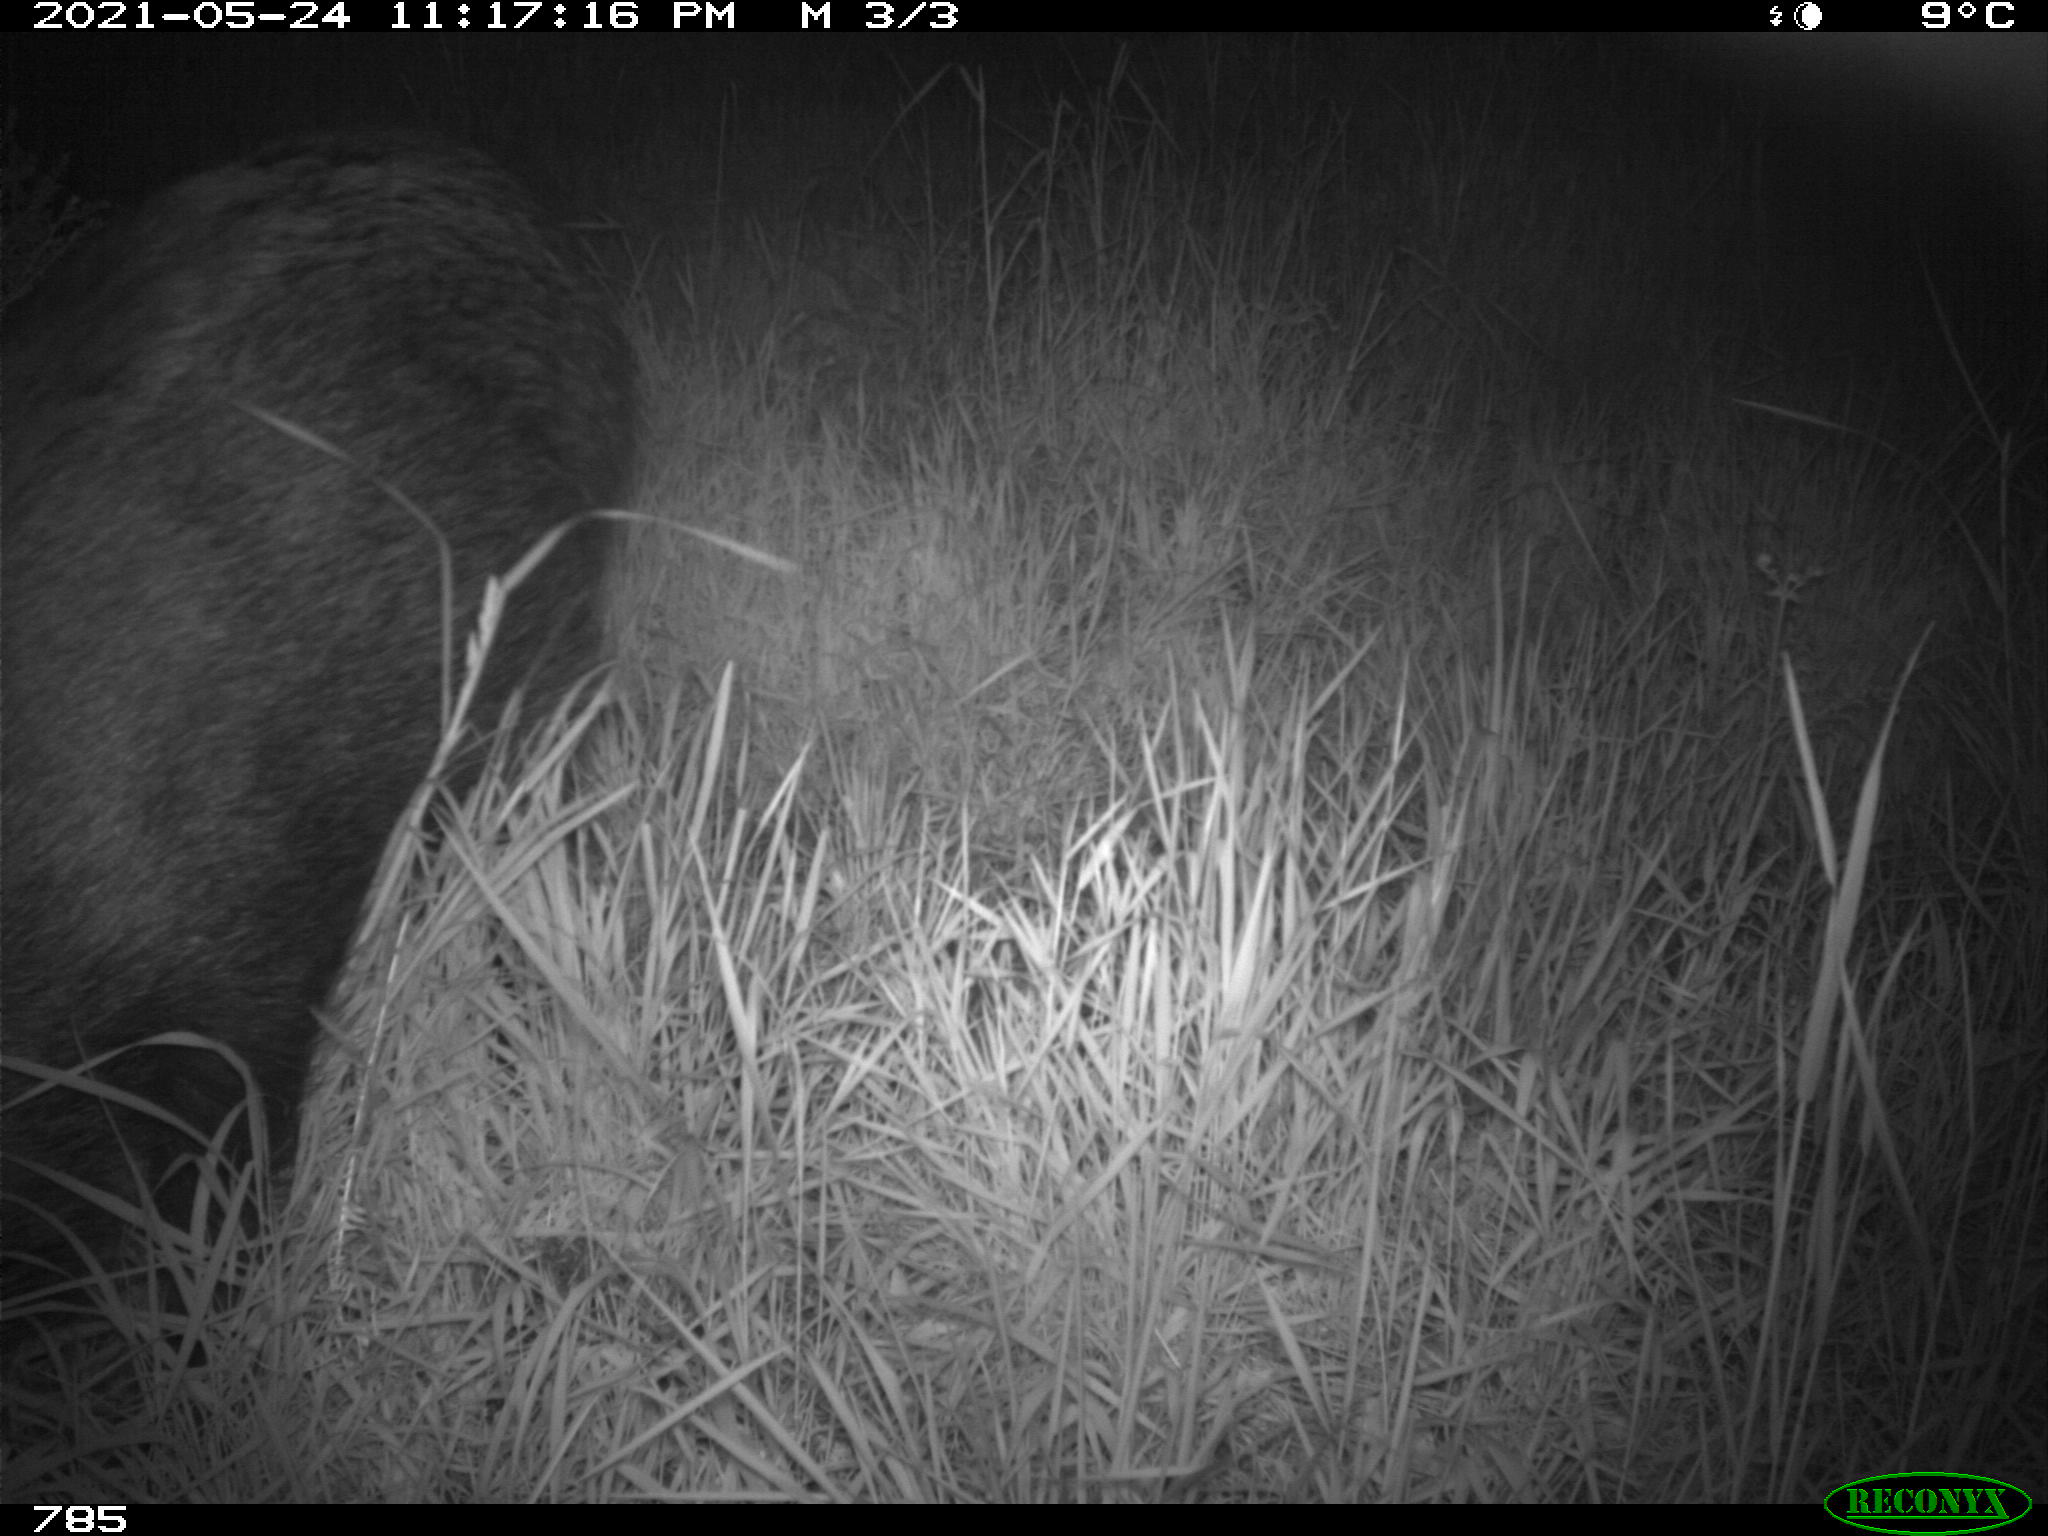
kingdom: Animalia
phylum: Chordata
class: Mammalia
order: Artiodactyla
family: Suidae
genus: Sus
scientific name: Sus scrofa
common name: Wild boar
